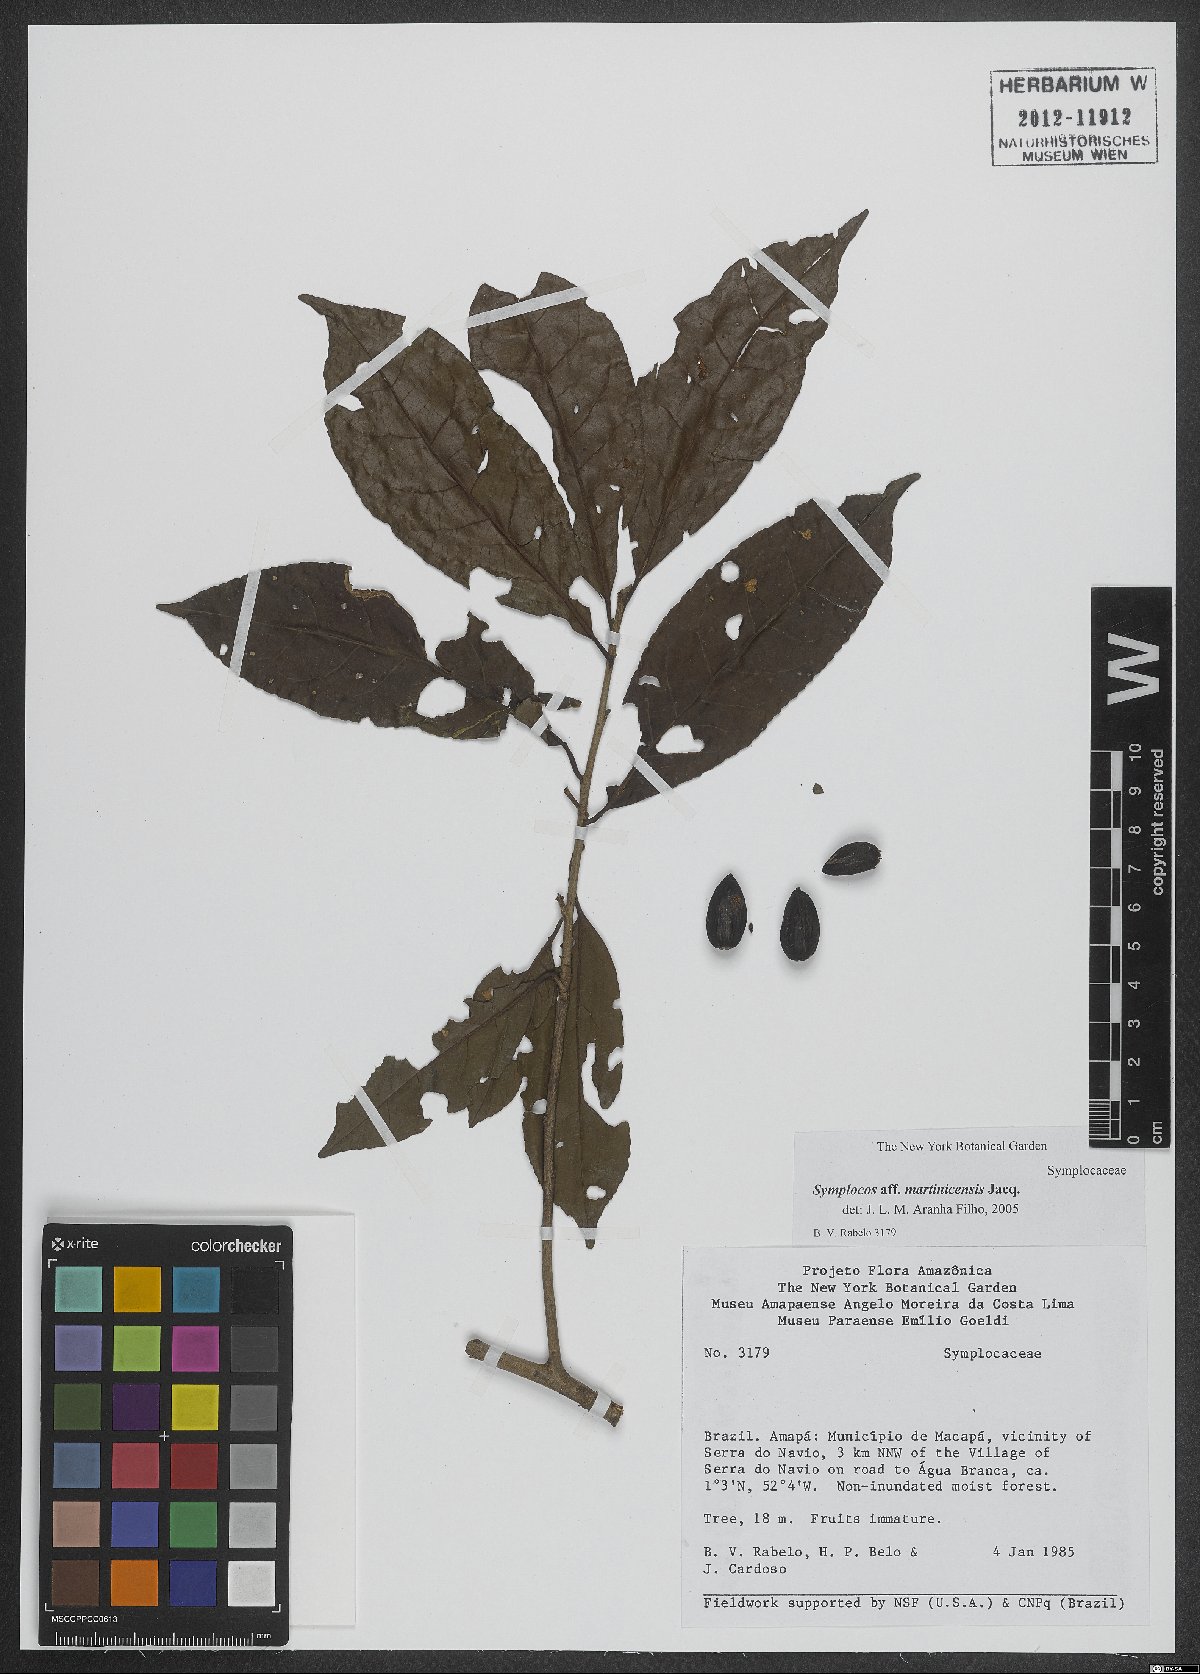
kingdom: Plantae
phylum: Tracheophyta
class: Magnoliopsida
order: Ericales
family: Symplocaceae
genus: Symplocos
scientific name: Symplocos martinicensis
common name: Blueberry
